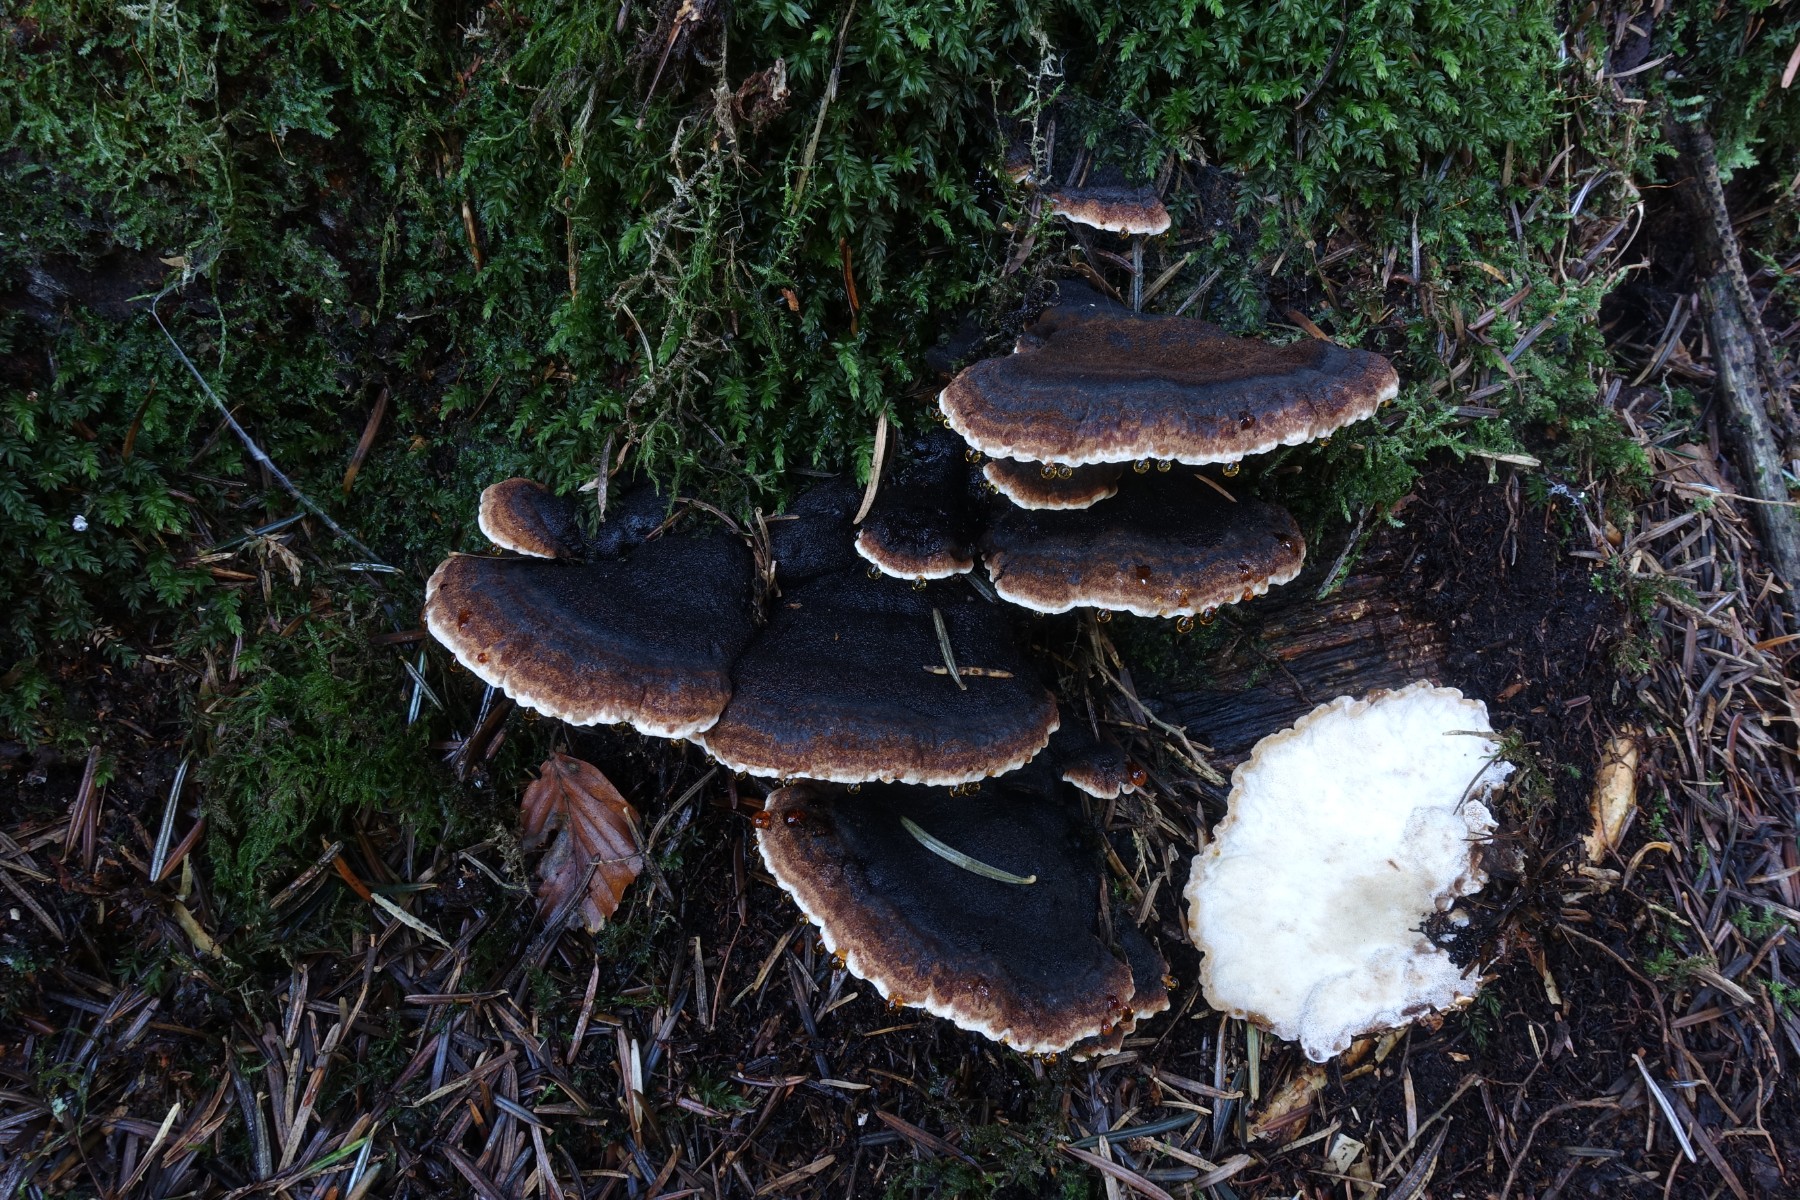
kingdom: Fungi
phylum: Basidiomycota
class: Agaricomycetes
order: Polyporales
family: Ischnodermataceae
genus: Ischnoderma
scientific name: Ischnoderma benzoinum
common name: gran-tjæreporesvamp
